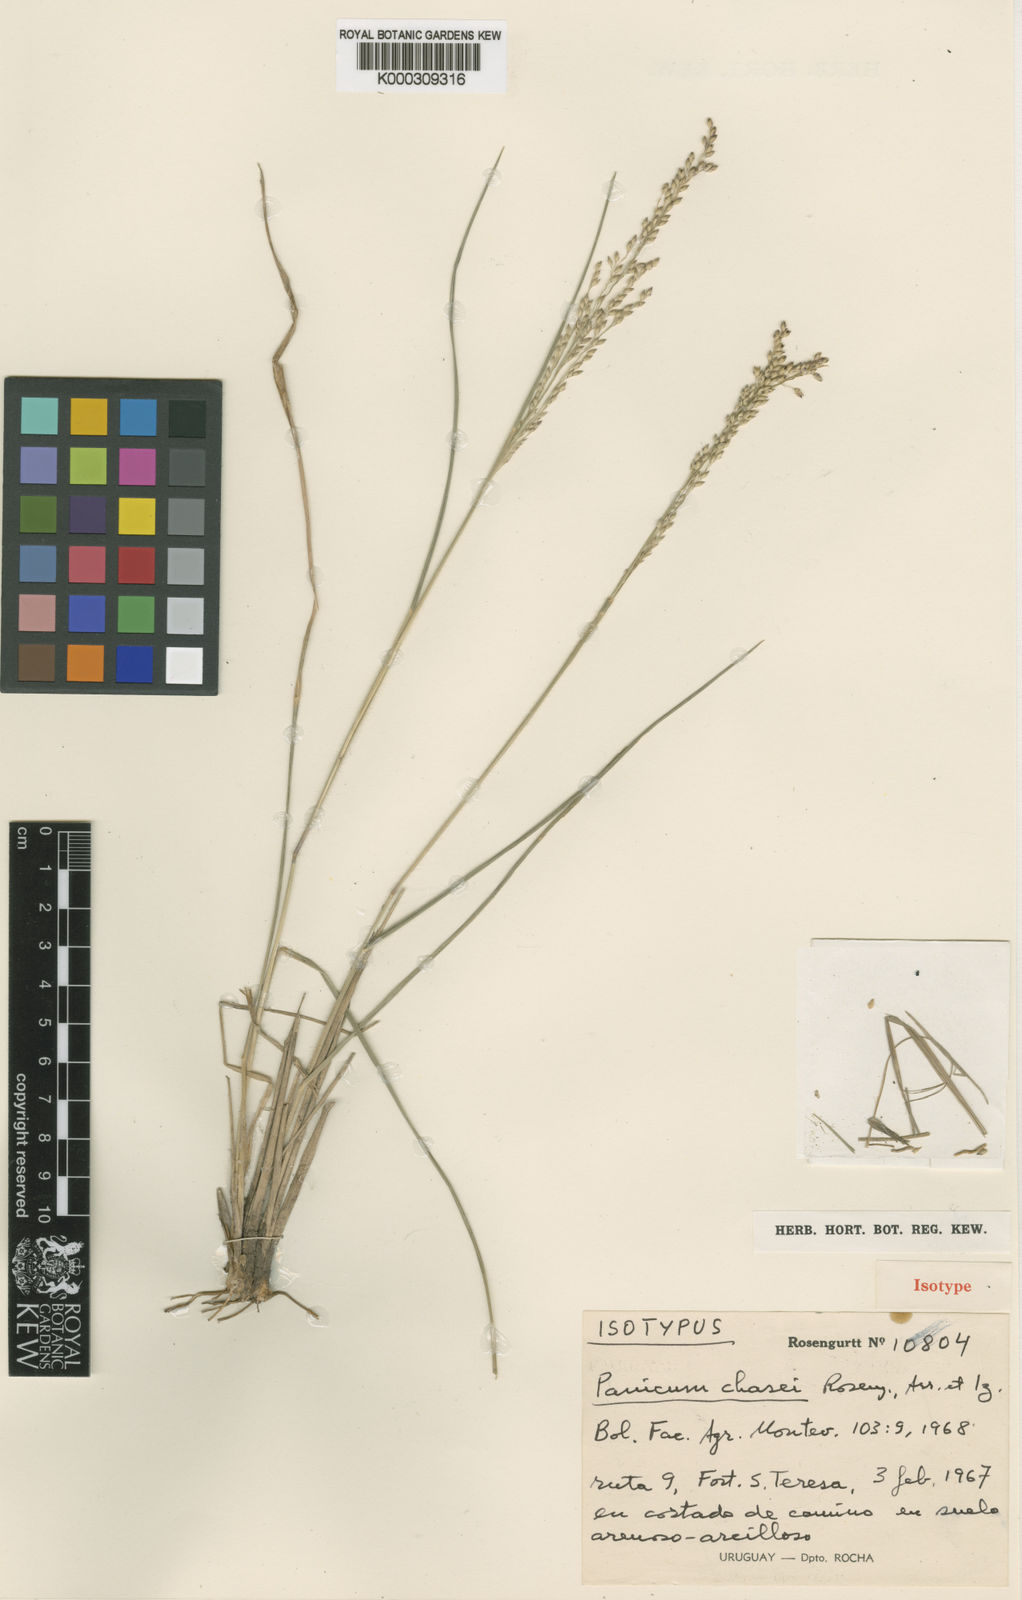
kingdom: Plantae
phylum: Tracheophyta
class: Liliopsida
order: Poales
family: Poaceae
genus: Panicum
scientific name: Panicum chaseae
